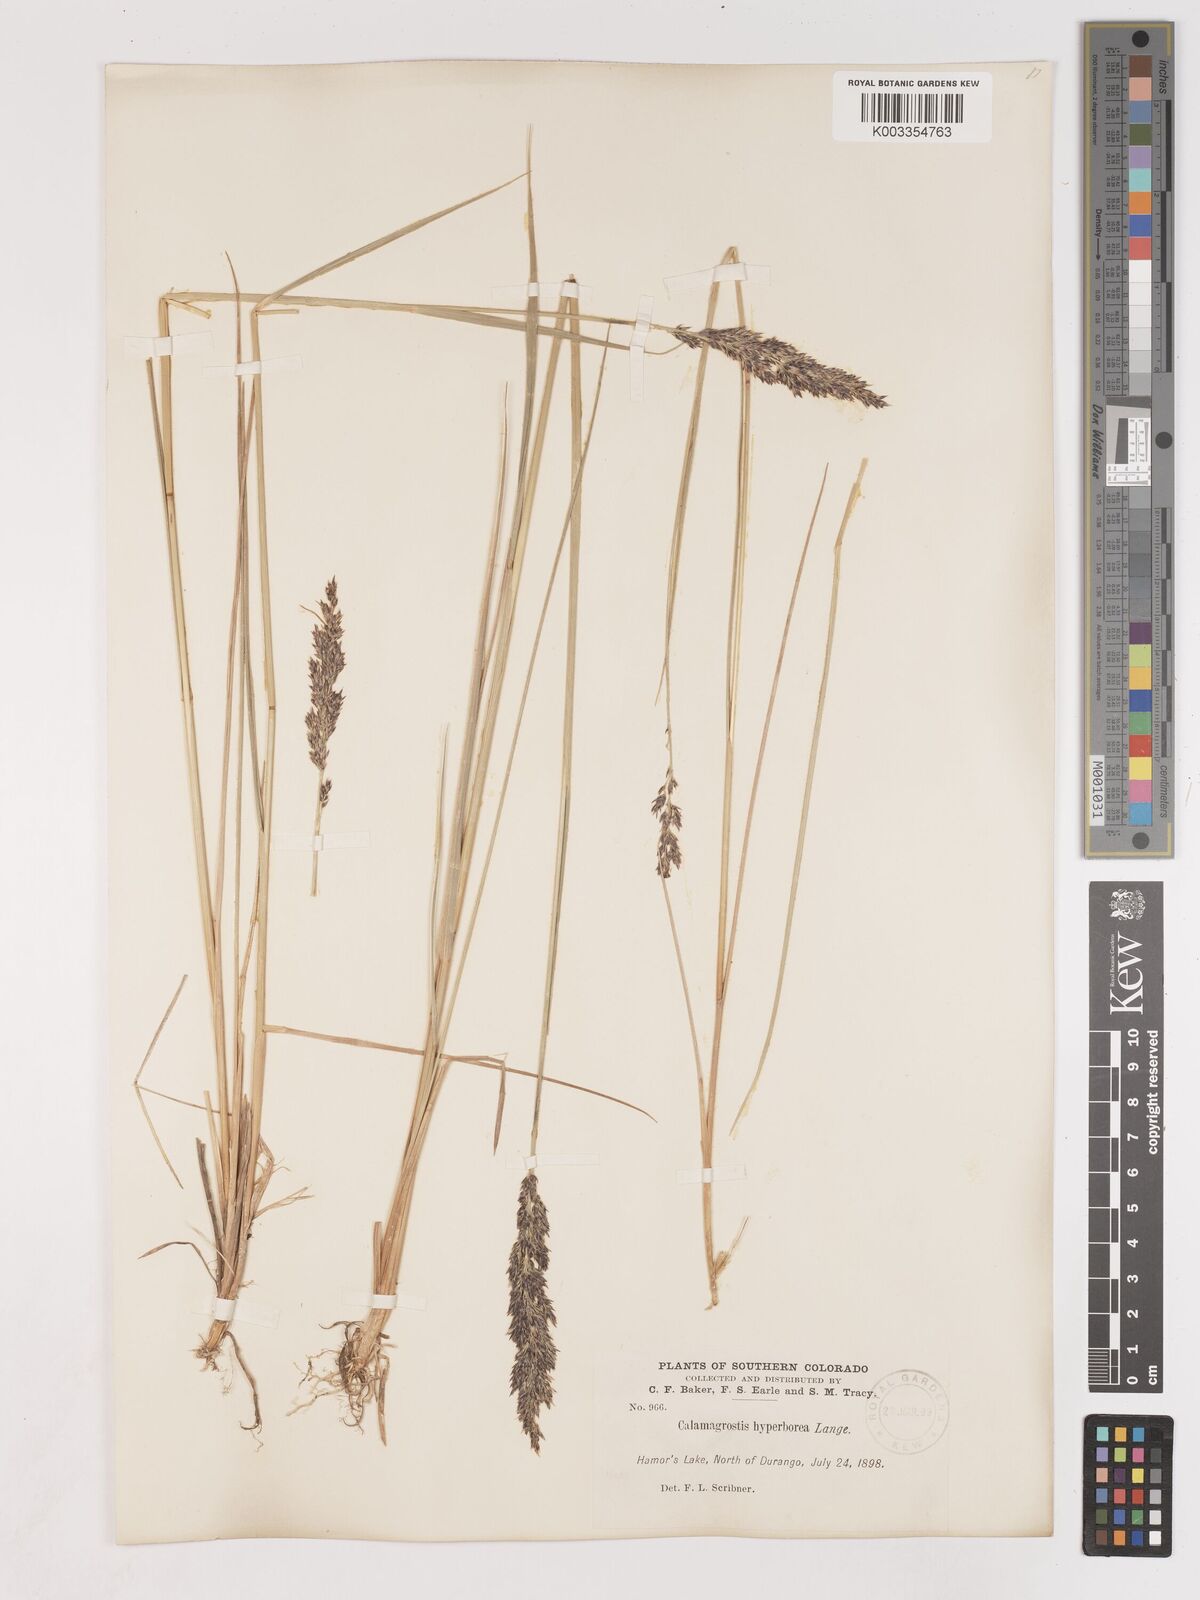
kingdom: Plantae
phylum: Tracheophyta
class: Liliopsida
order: Poales
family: Poaceae
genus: Cinnagrostis
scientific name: Cinnagrostis recta
